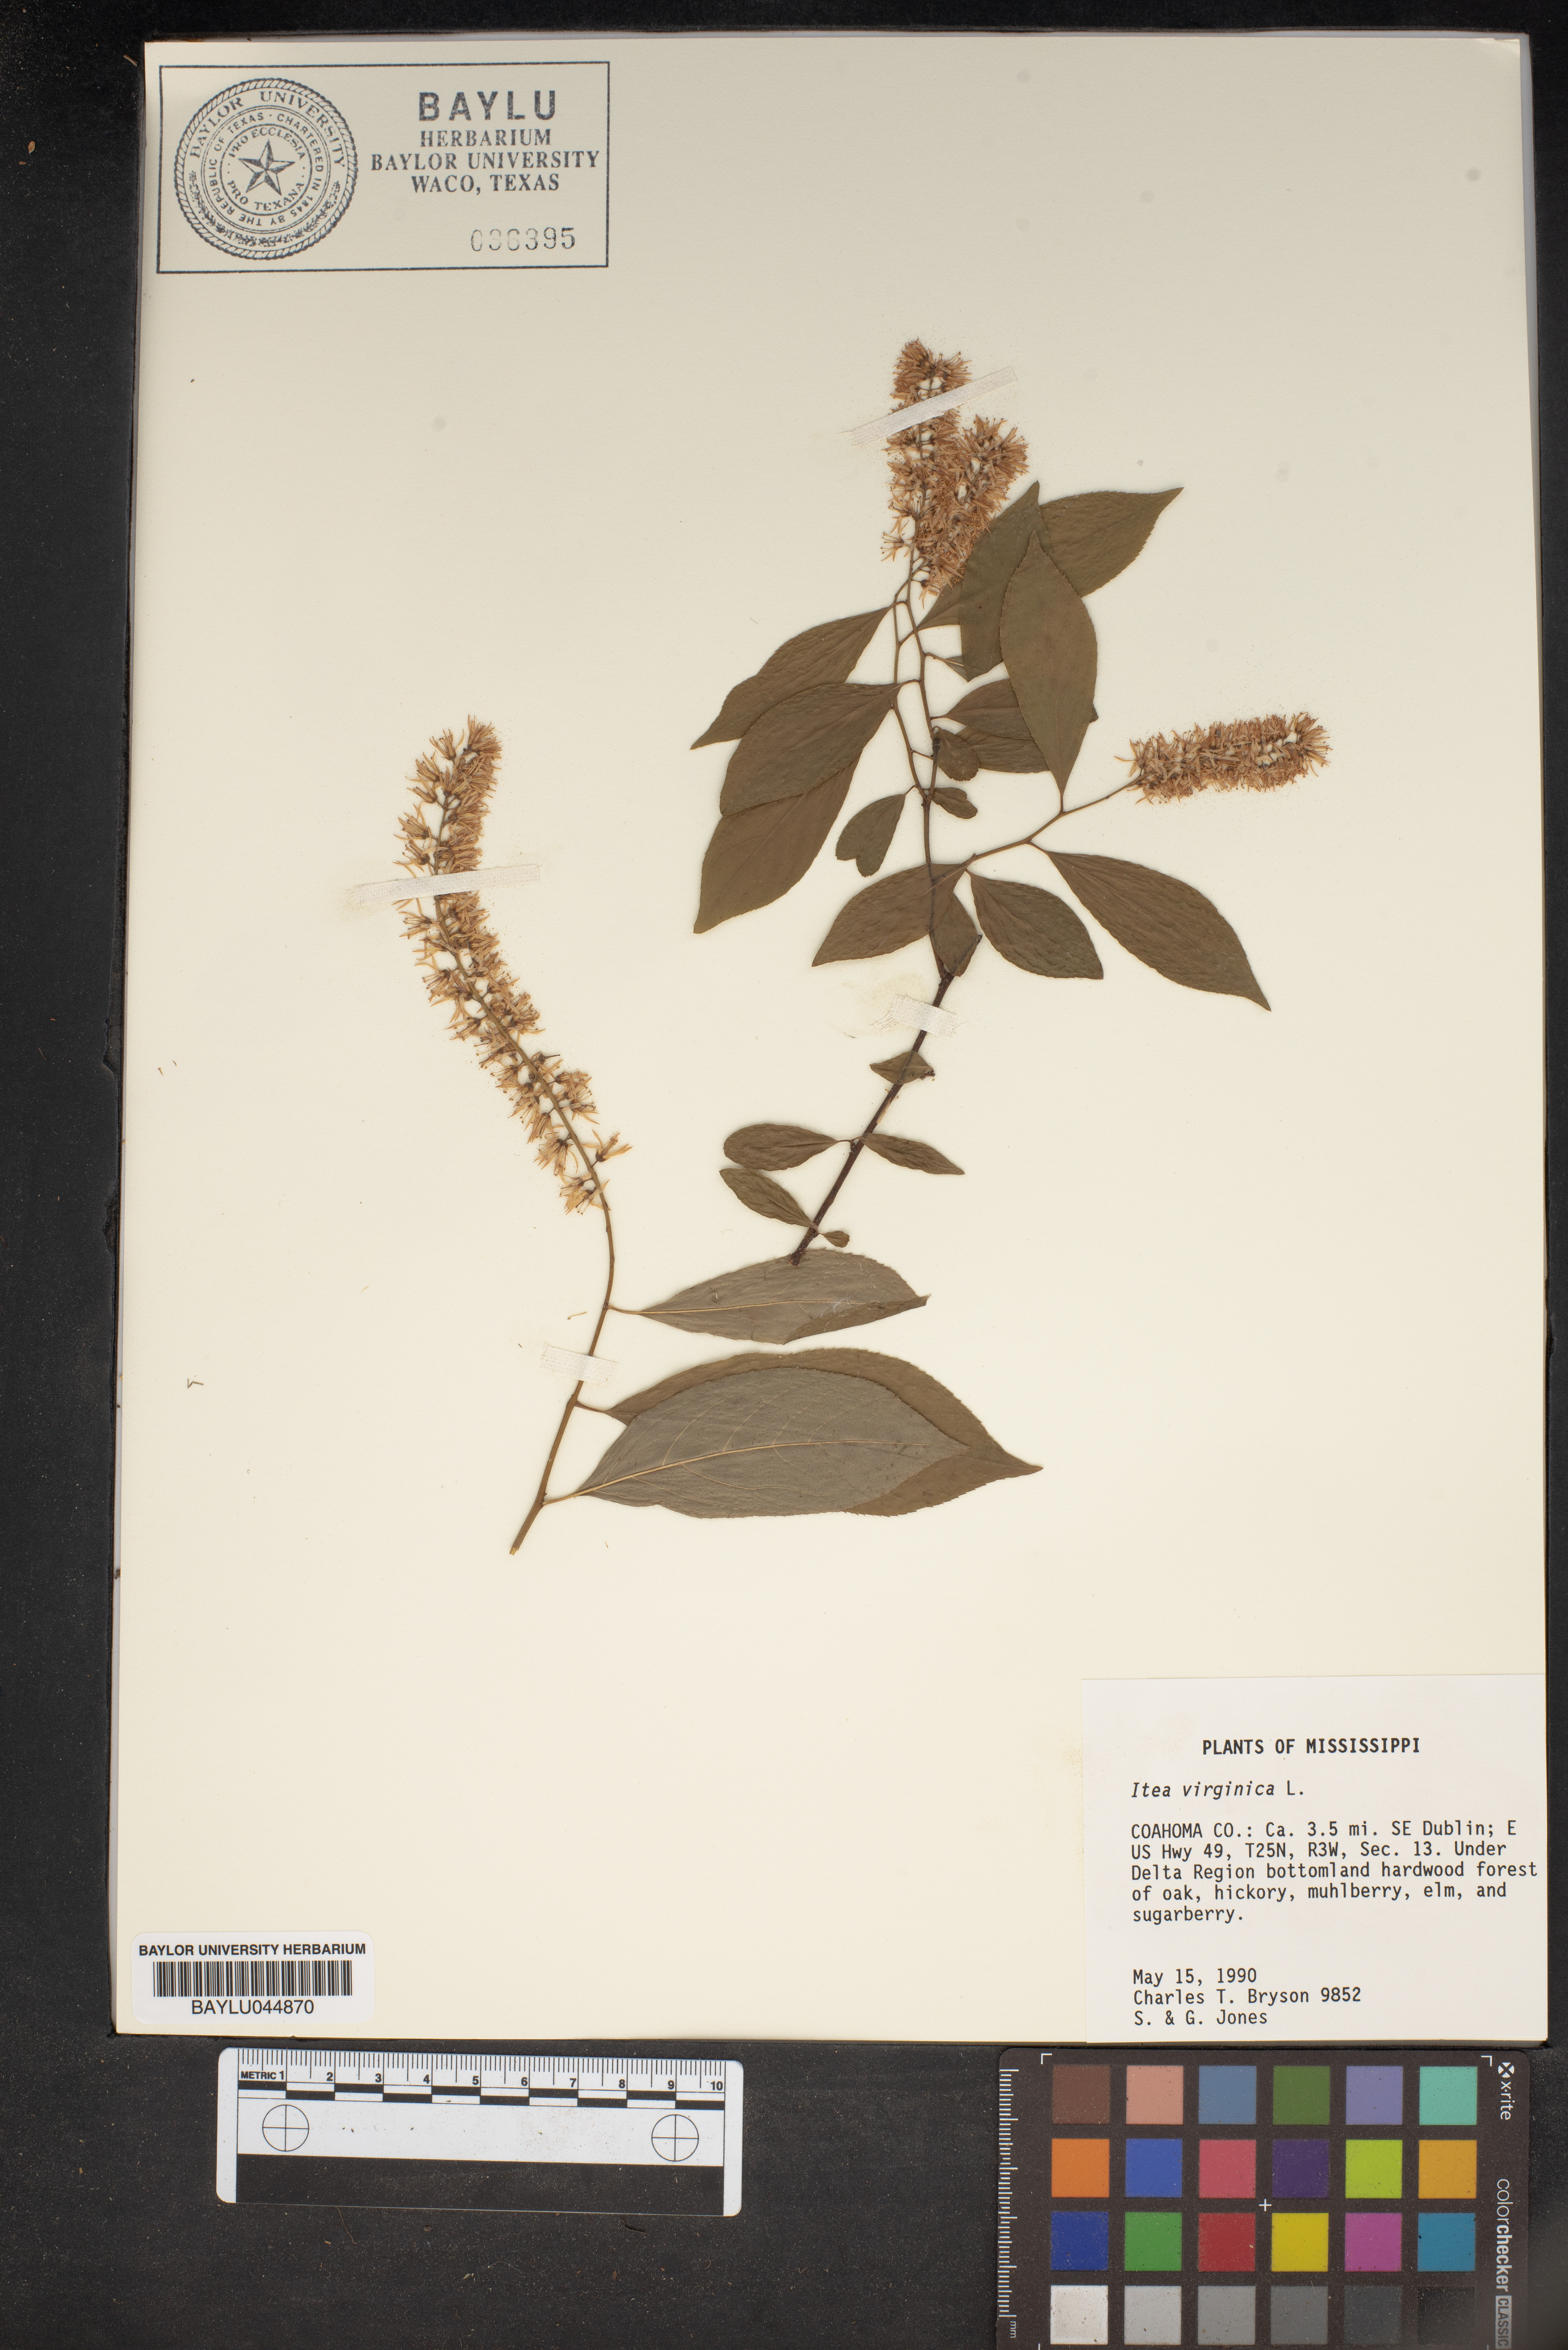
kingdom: Plantae
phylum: Tracheophyta
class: Magnoliopsida
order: Saxifragales
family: Iteaceae
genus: Itea
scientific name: Itea virginica
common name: Sweetspire
